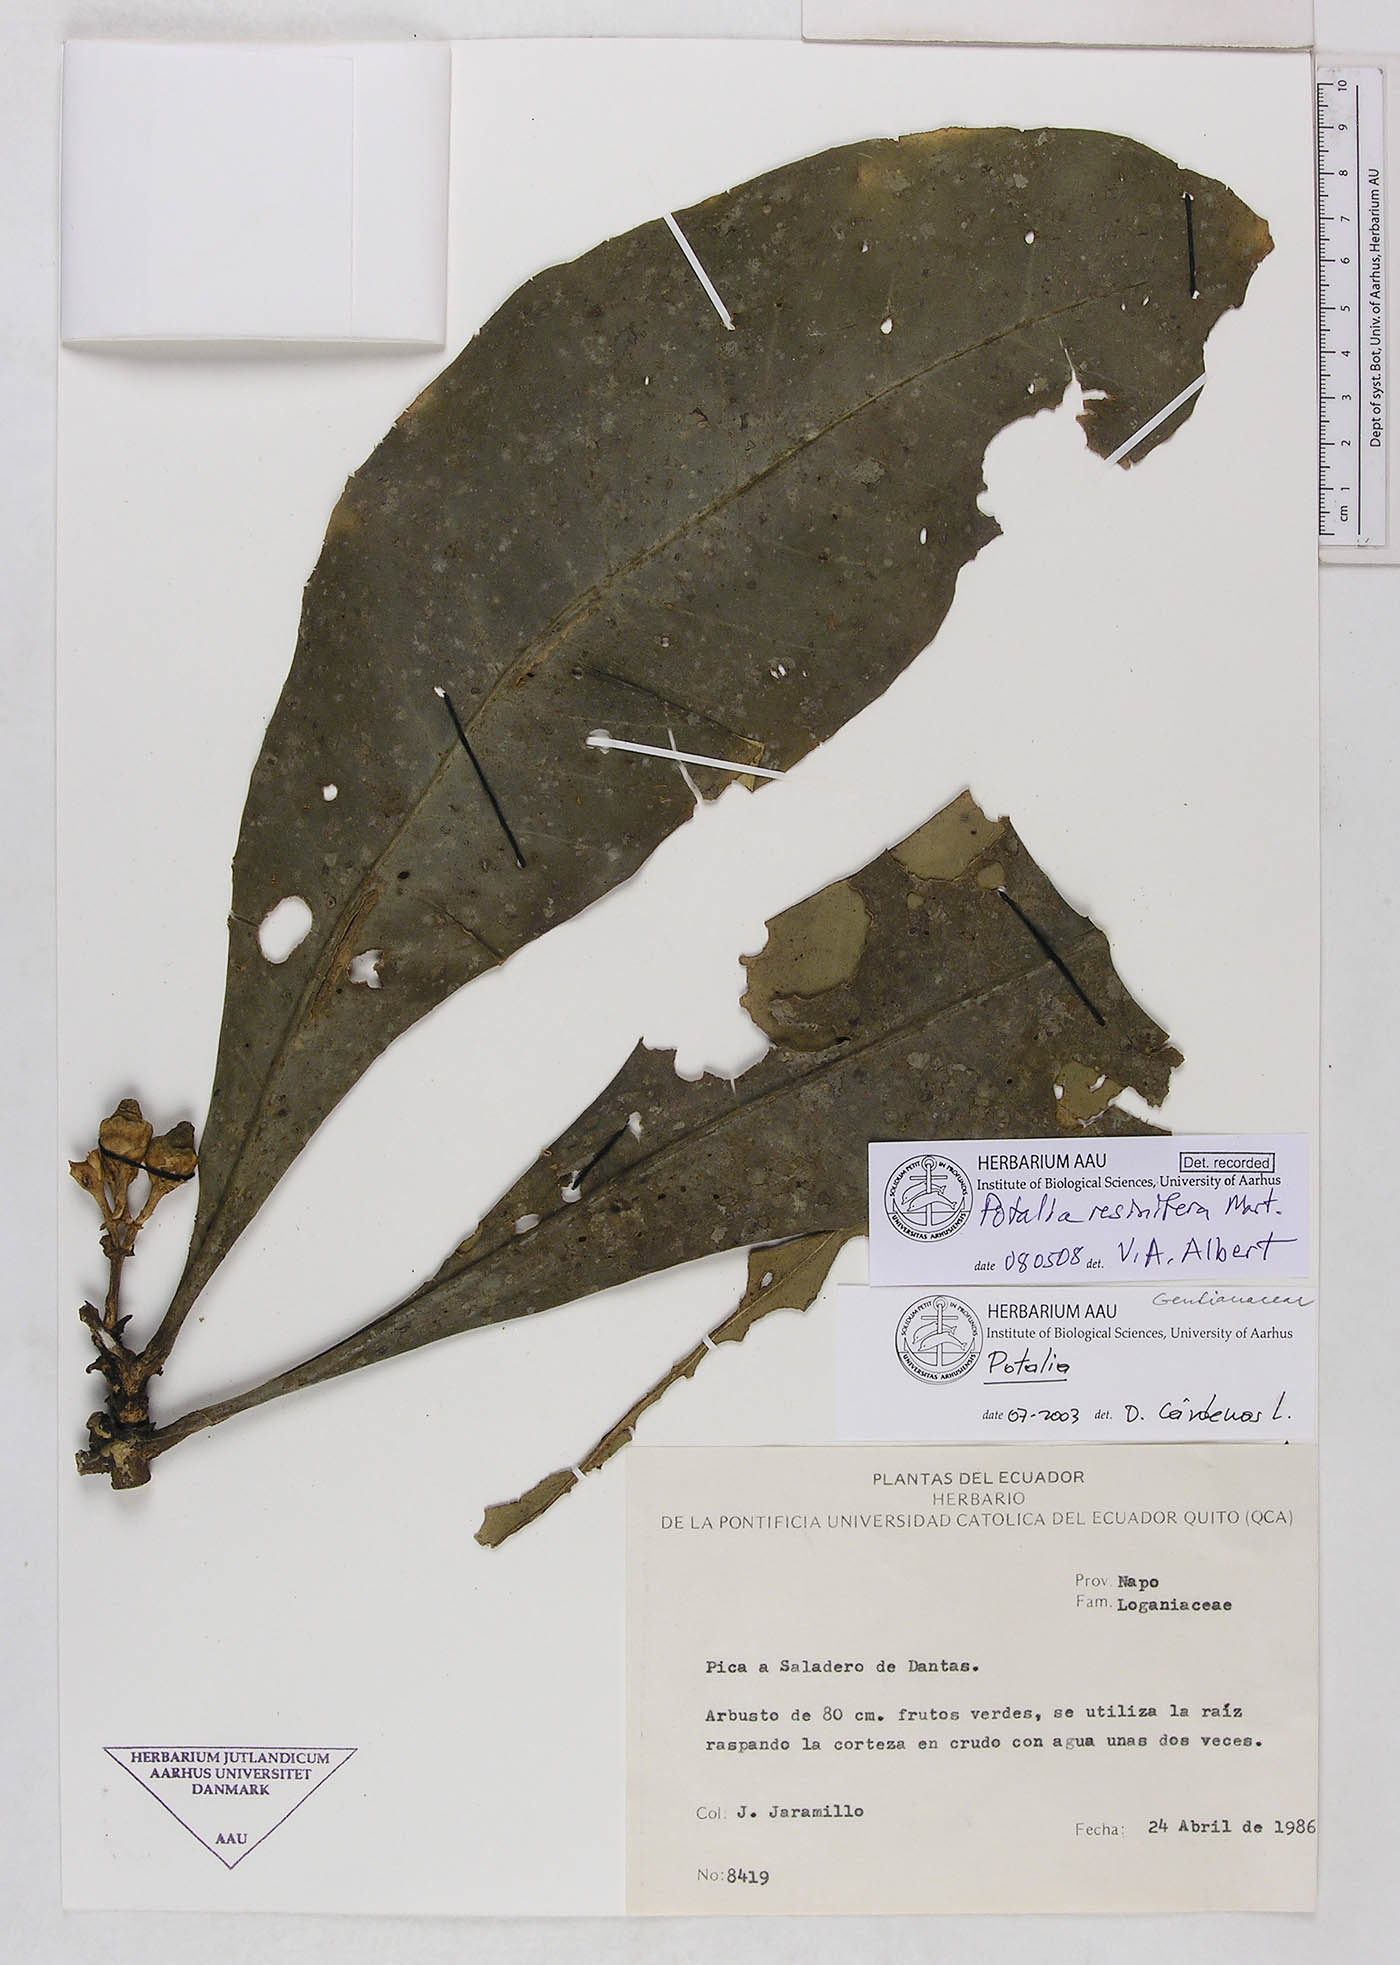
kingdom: Plantae
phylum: Tracheophyta
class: Magnoliopsida
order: Gentianales
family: Gentianaceae
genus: Potalia
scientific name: Potalia resinifera
